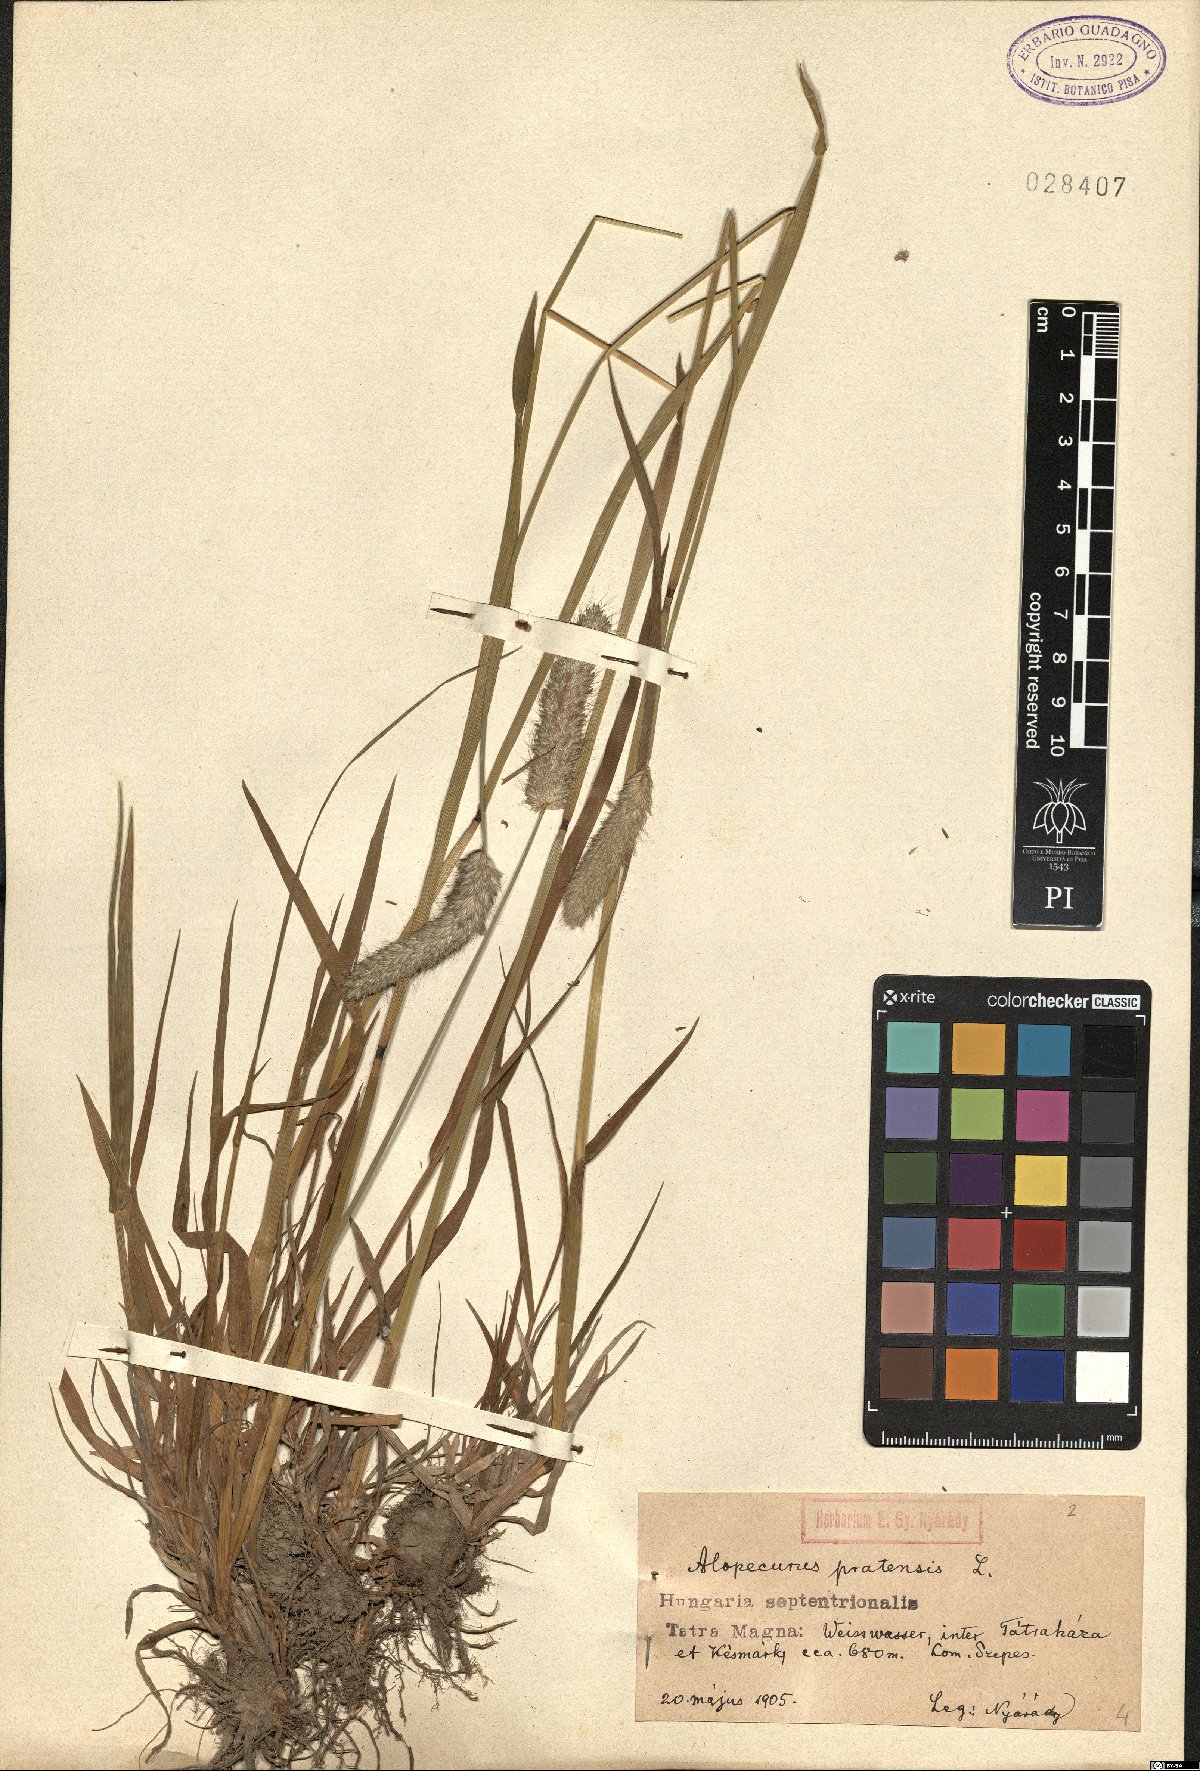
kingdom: Plantae
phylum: Tracheophyta
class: Liliopsida
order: Poales
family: Poaceae
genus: Alopecurus
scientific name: Alopecurus pratensis
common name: Meadow foxtail
